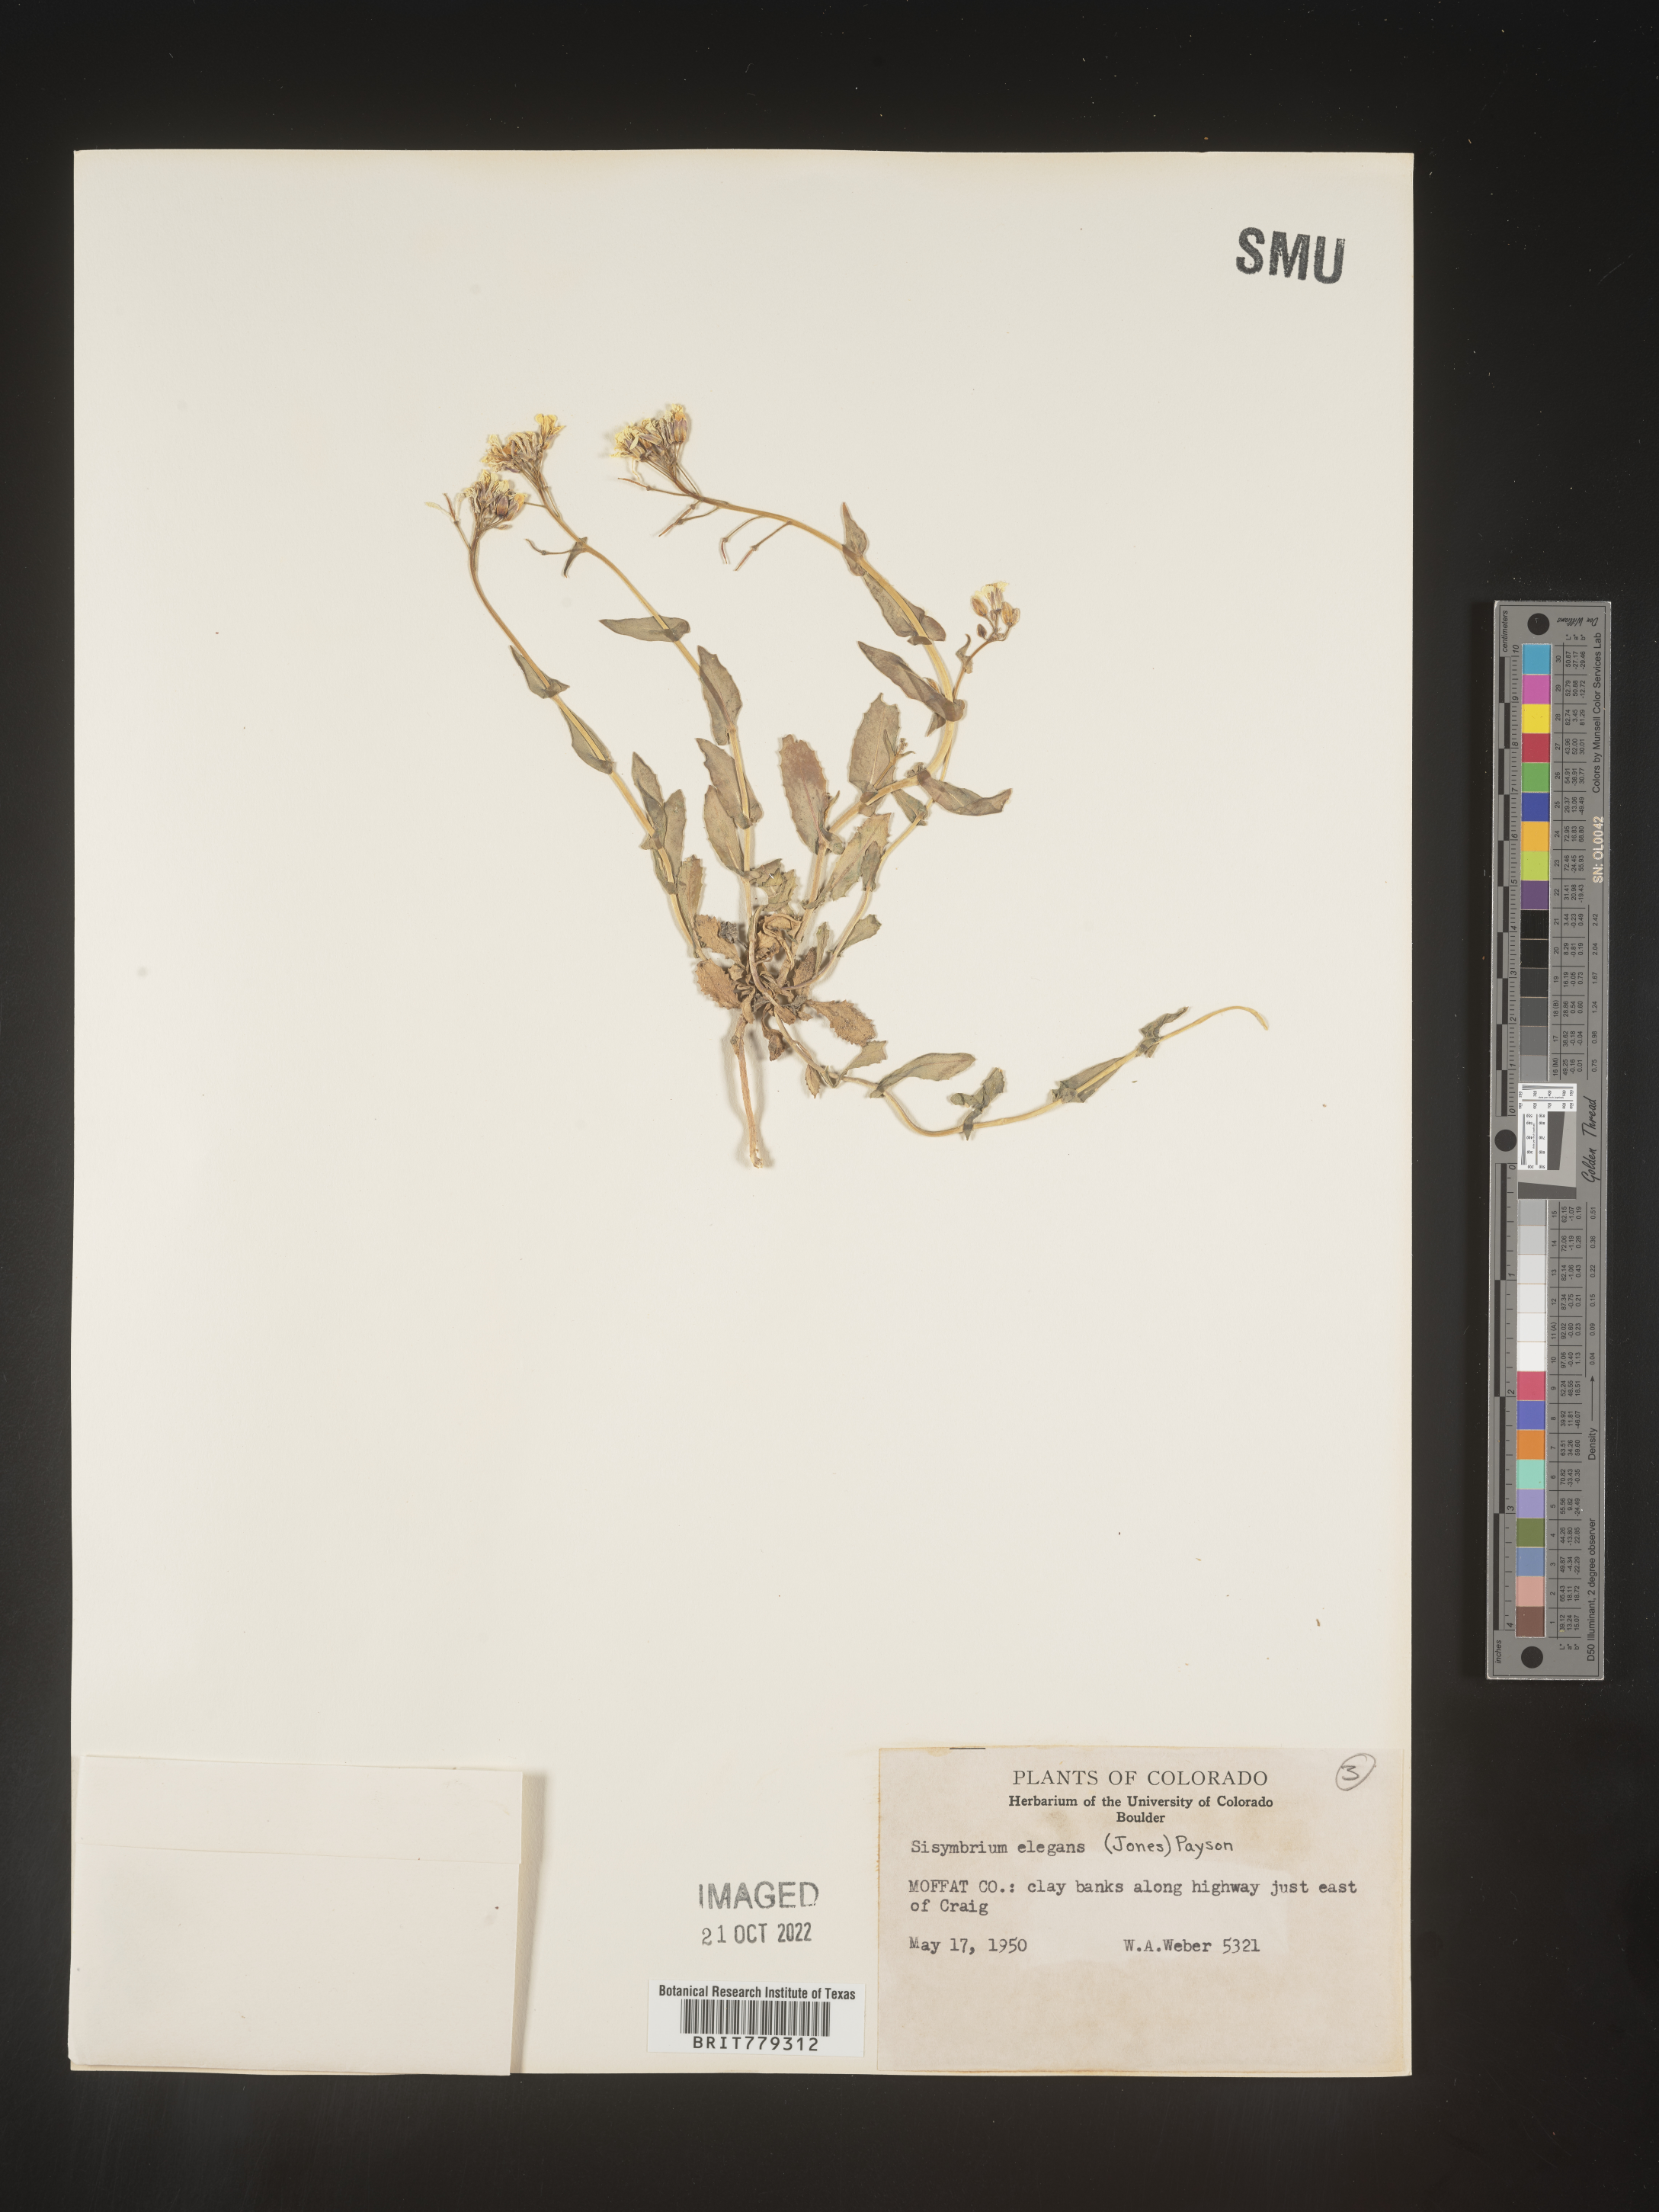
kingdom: Plantae
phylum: Tracheophyta
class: Magnoliopsida
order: Brassicales
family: Brassicaceae
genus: Sisymbrium
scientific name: Sisymbrium
